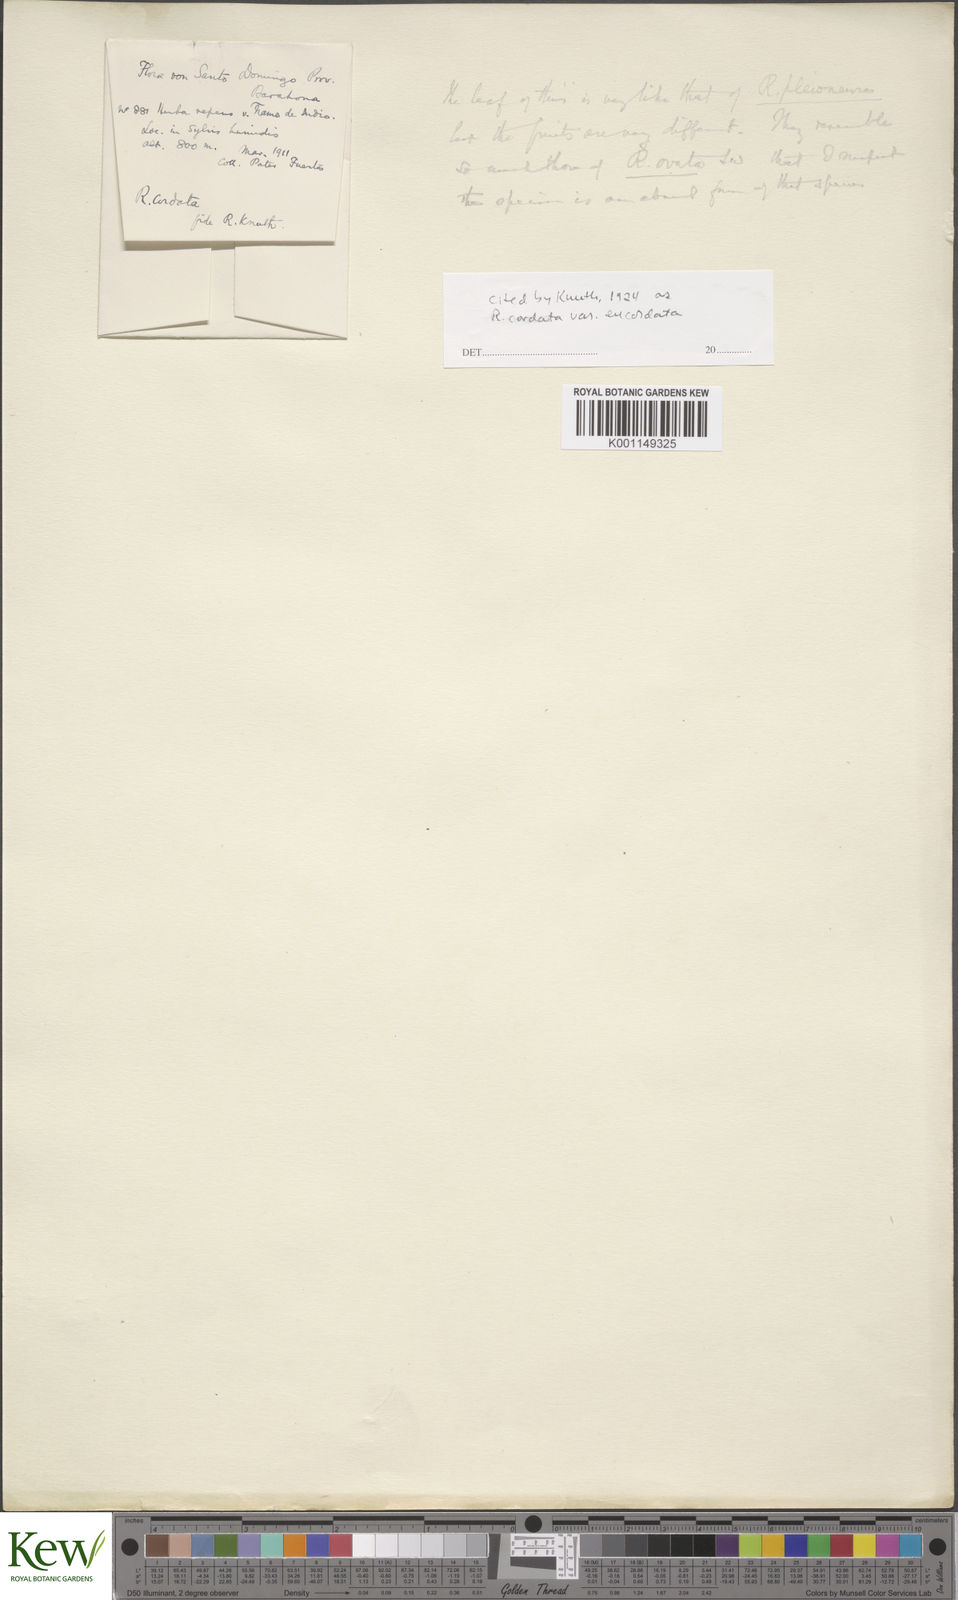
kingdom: Plantae
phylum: Tracheophyta
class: Liliopsida
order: Dioscoreales
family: Dioscoreaceae
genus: Dioscorea
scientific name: Dioscorea ovata
